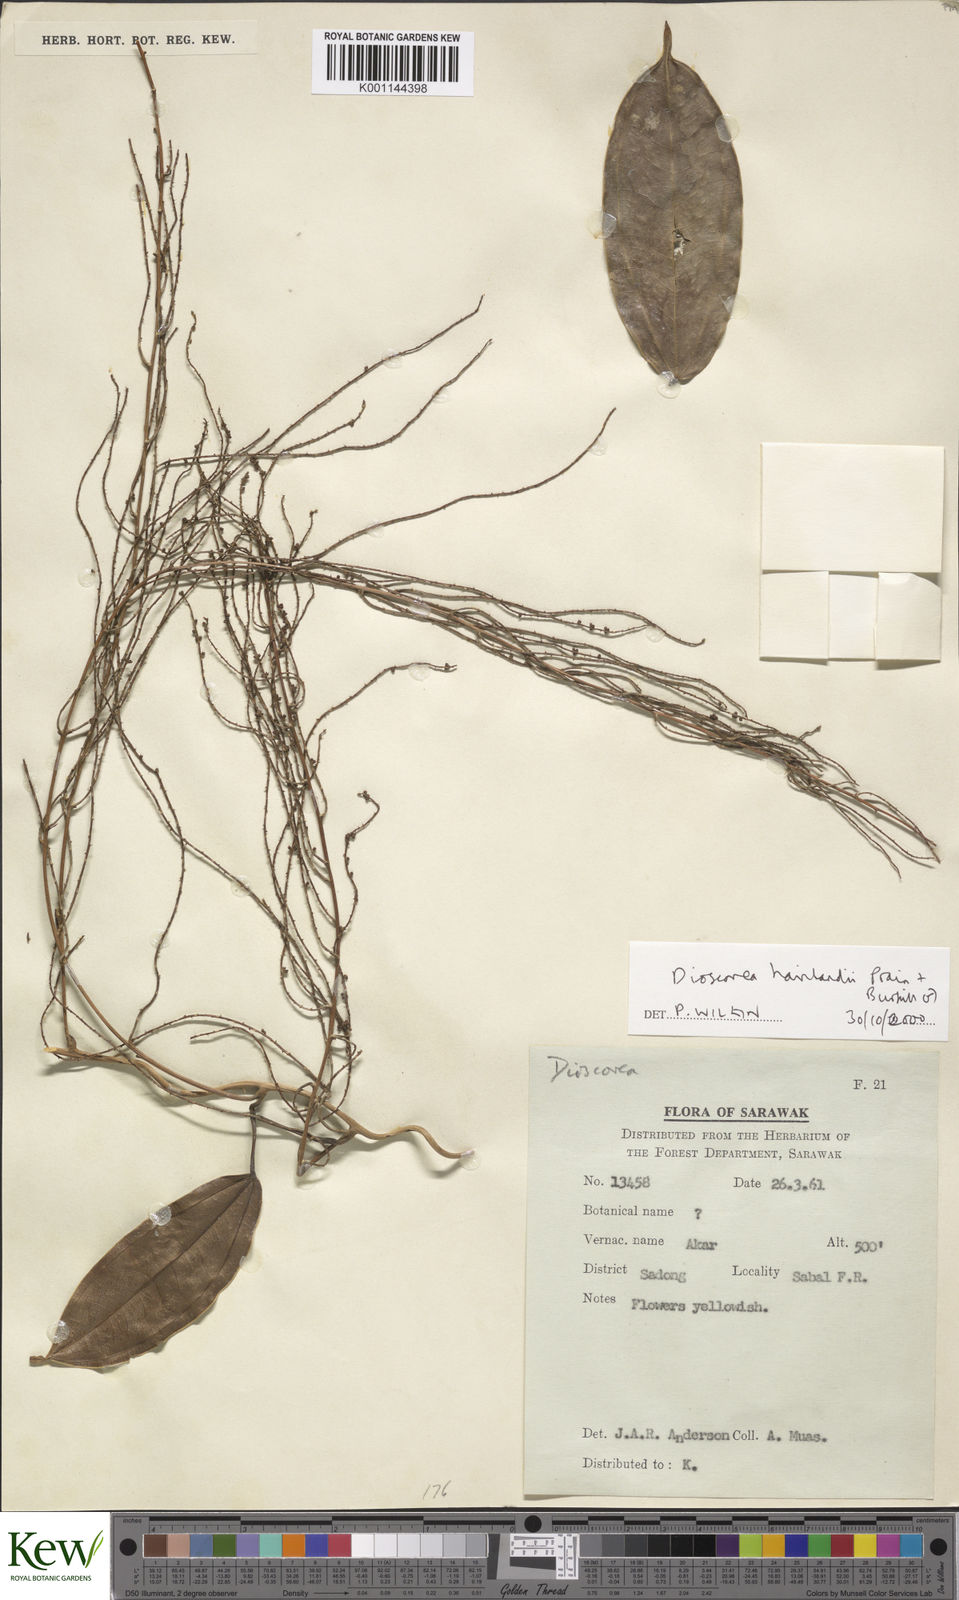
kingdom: Plantae
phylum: Tracheophyta
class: Liliopsida
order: Dioscoreales
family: Dioscoreaceae
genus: Dioscorea
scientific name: Dioscorea havilandii
